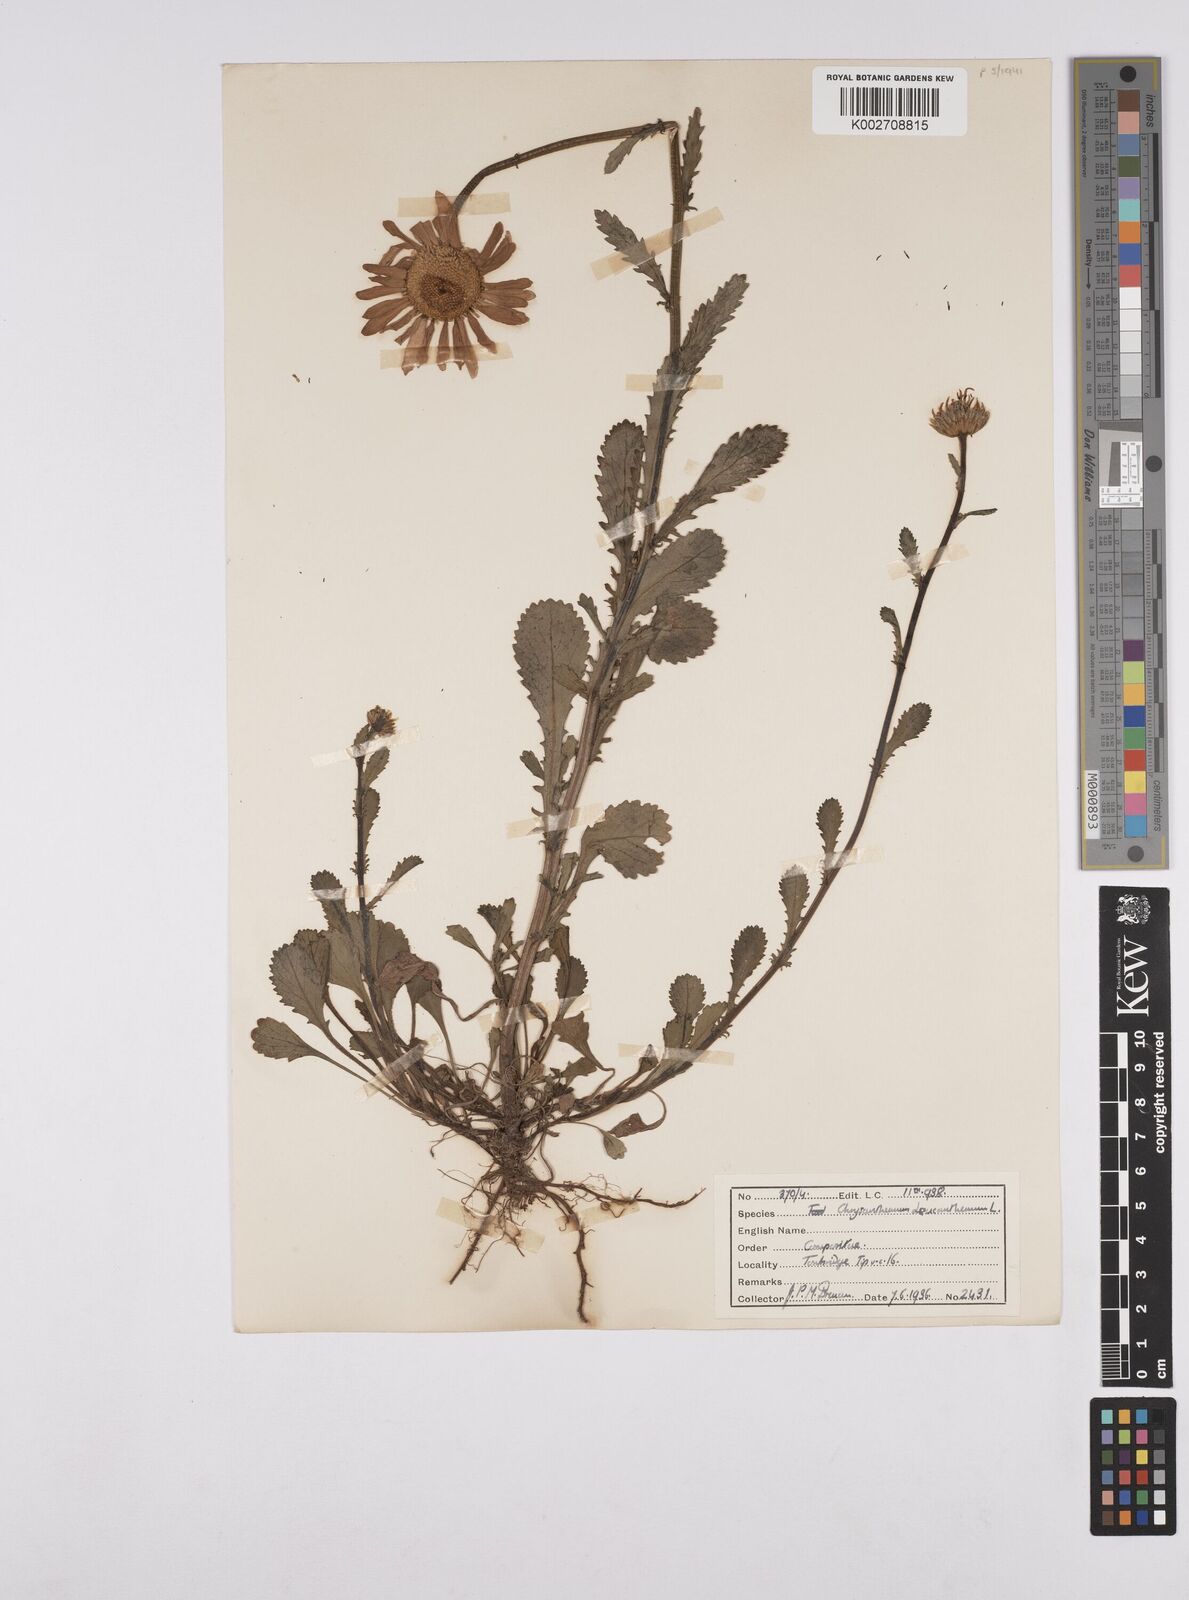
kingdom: Plantae
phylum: Tracheophyta
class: Magnoliopsida
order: Asterales
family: Asteraceae
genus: Leucanthemum
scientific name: Leucanthemum vulgare
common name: Oxeye daisy
